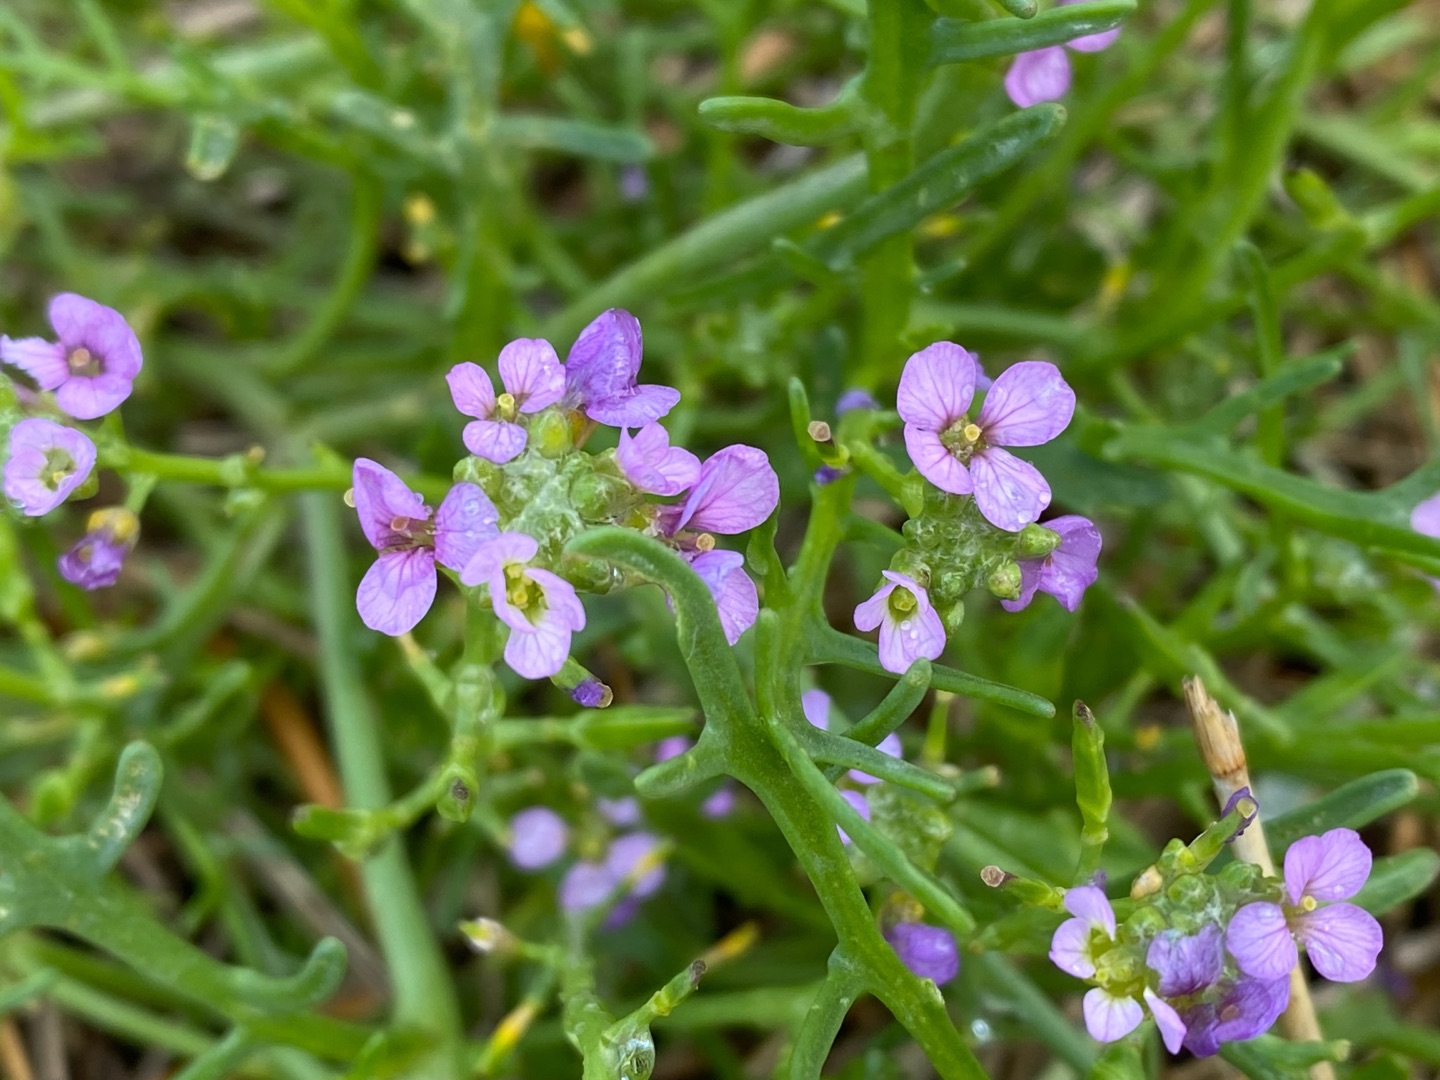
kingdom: Plantae
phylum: Tracheophyta
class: Magnoliopsida
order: Brassicales
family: Brassicaceae
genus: Cakile
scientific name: Cakile maritima
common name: Strandsennep
